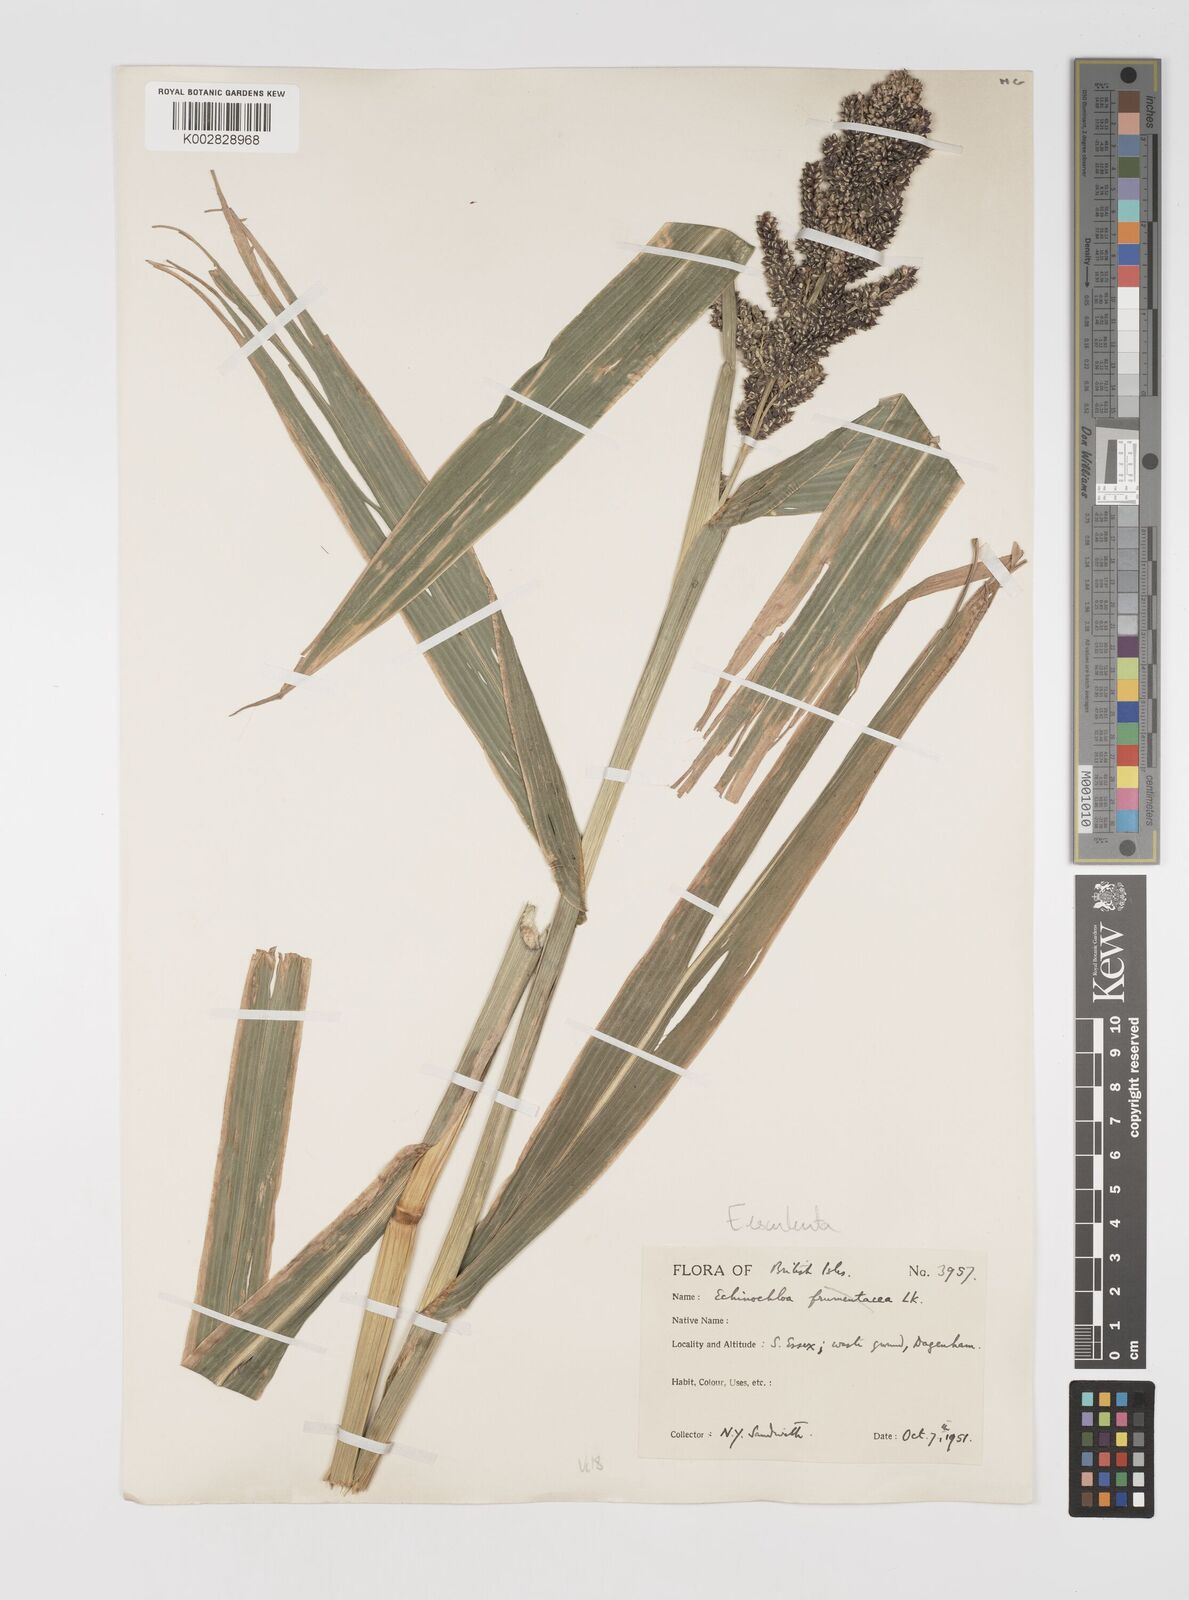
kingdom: Plantae
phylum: Tracheophyta
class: Liliopsida
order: Poales
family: Poaceae
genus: Echinochloa
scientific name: Echinochloa crus-galli
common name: Cockspur
